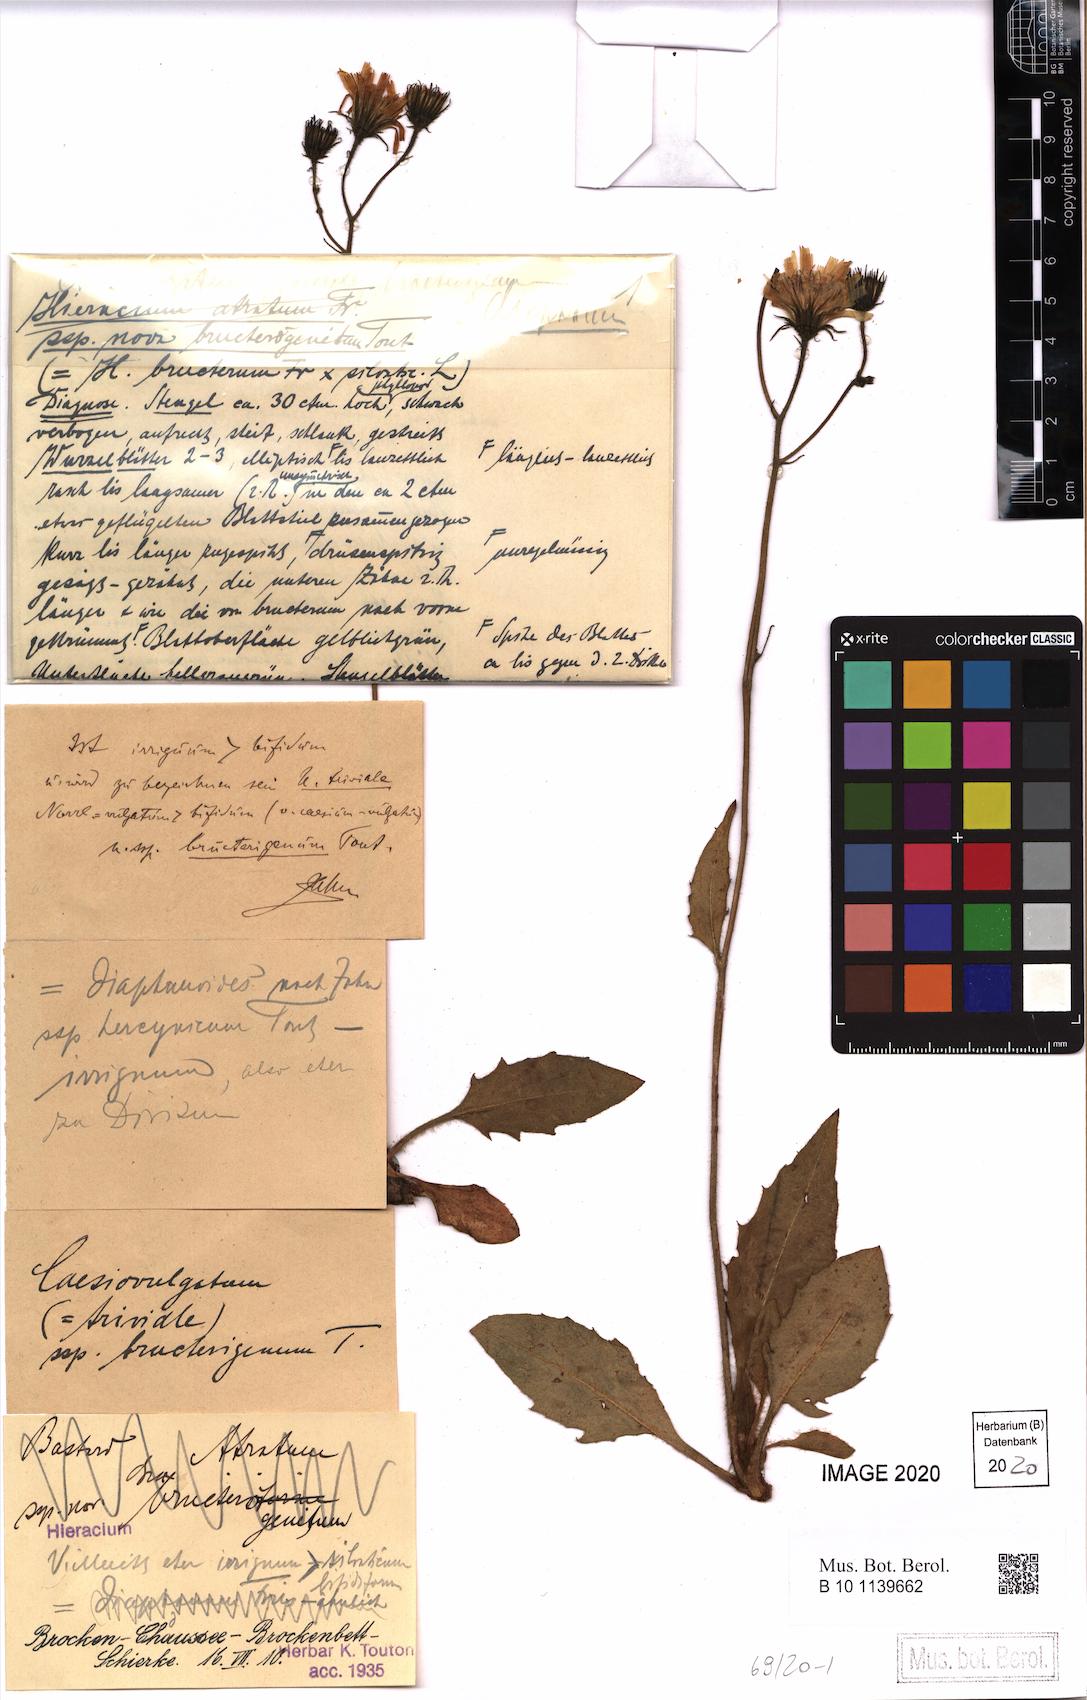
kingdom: Plantae
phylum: Tracheophyta
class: Magnoliopsida
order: Asterales
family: Asteraceae
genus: Hieracium
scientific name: Hieracium
